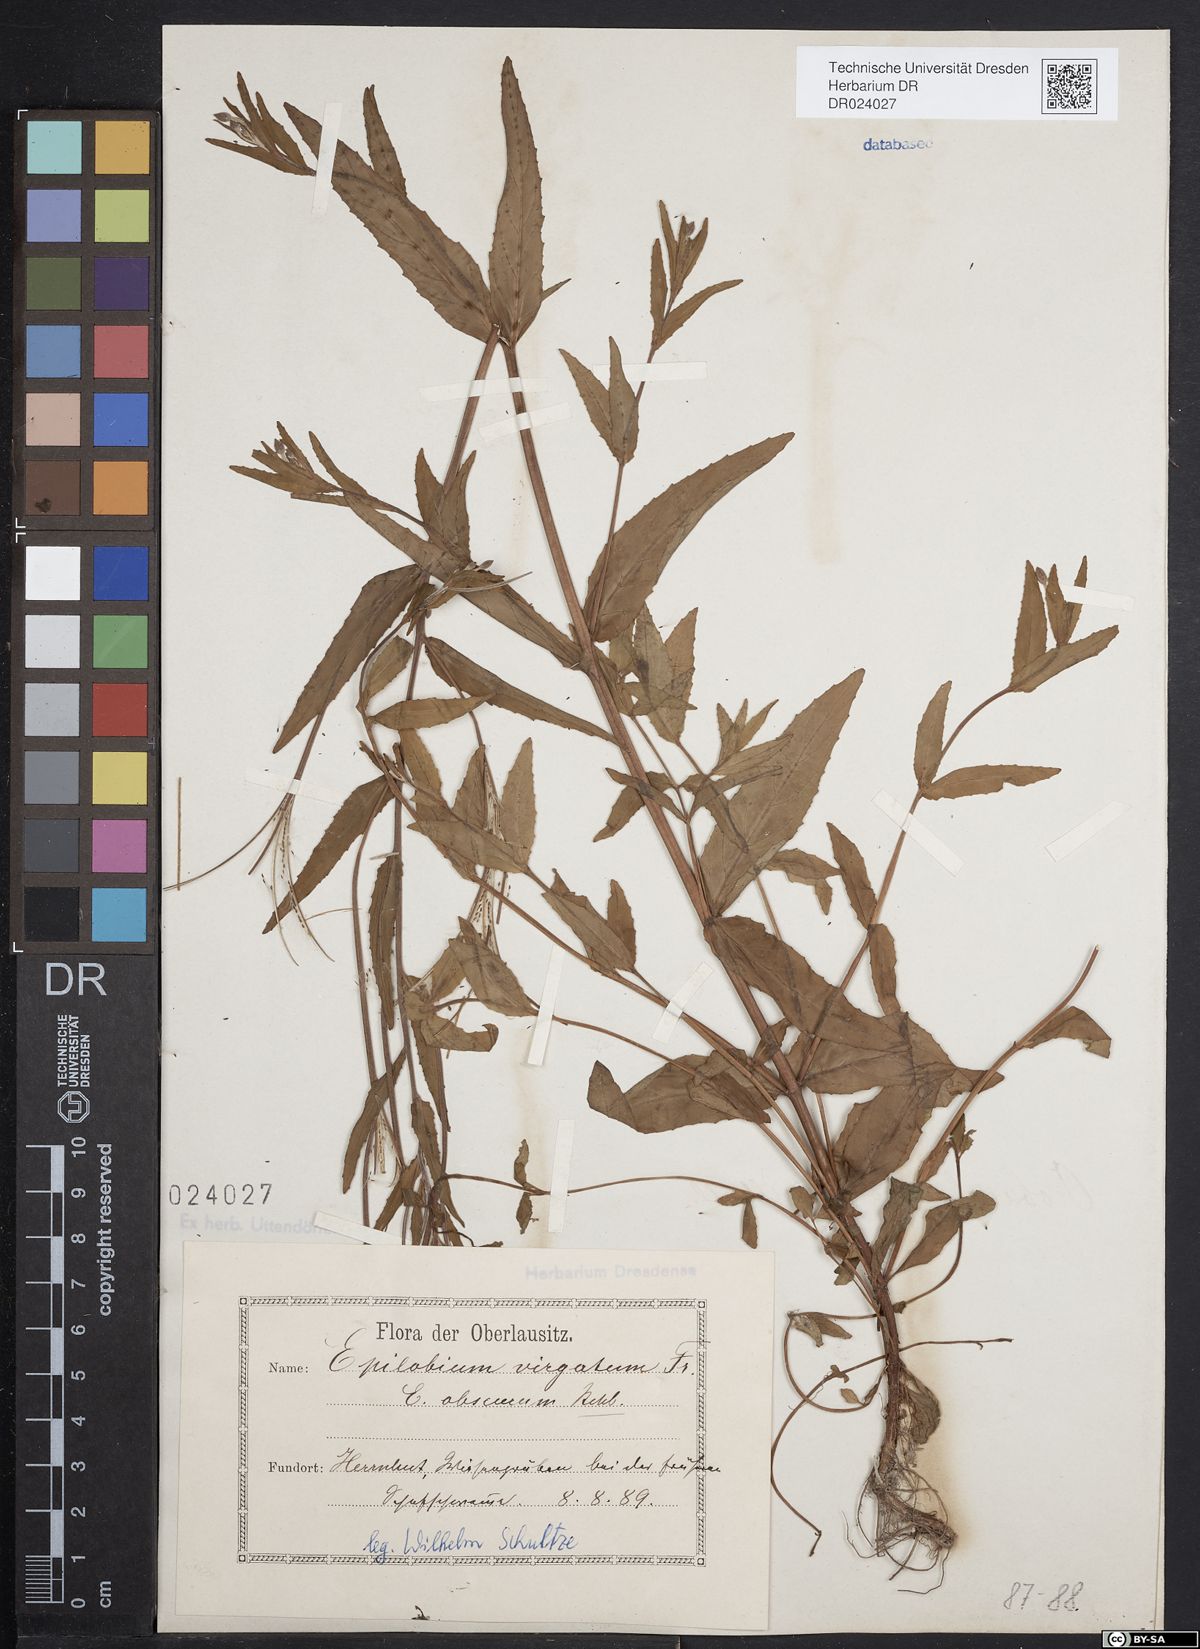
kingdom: Plantae
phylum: Tracheophyta
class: Magnoliopsida
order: Myrtales
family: Onagraceae
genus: Epilobium
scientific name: Epilobium obscurum
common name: Short-fruited willowherb
